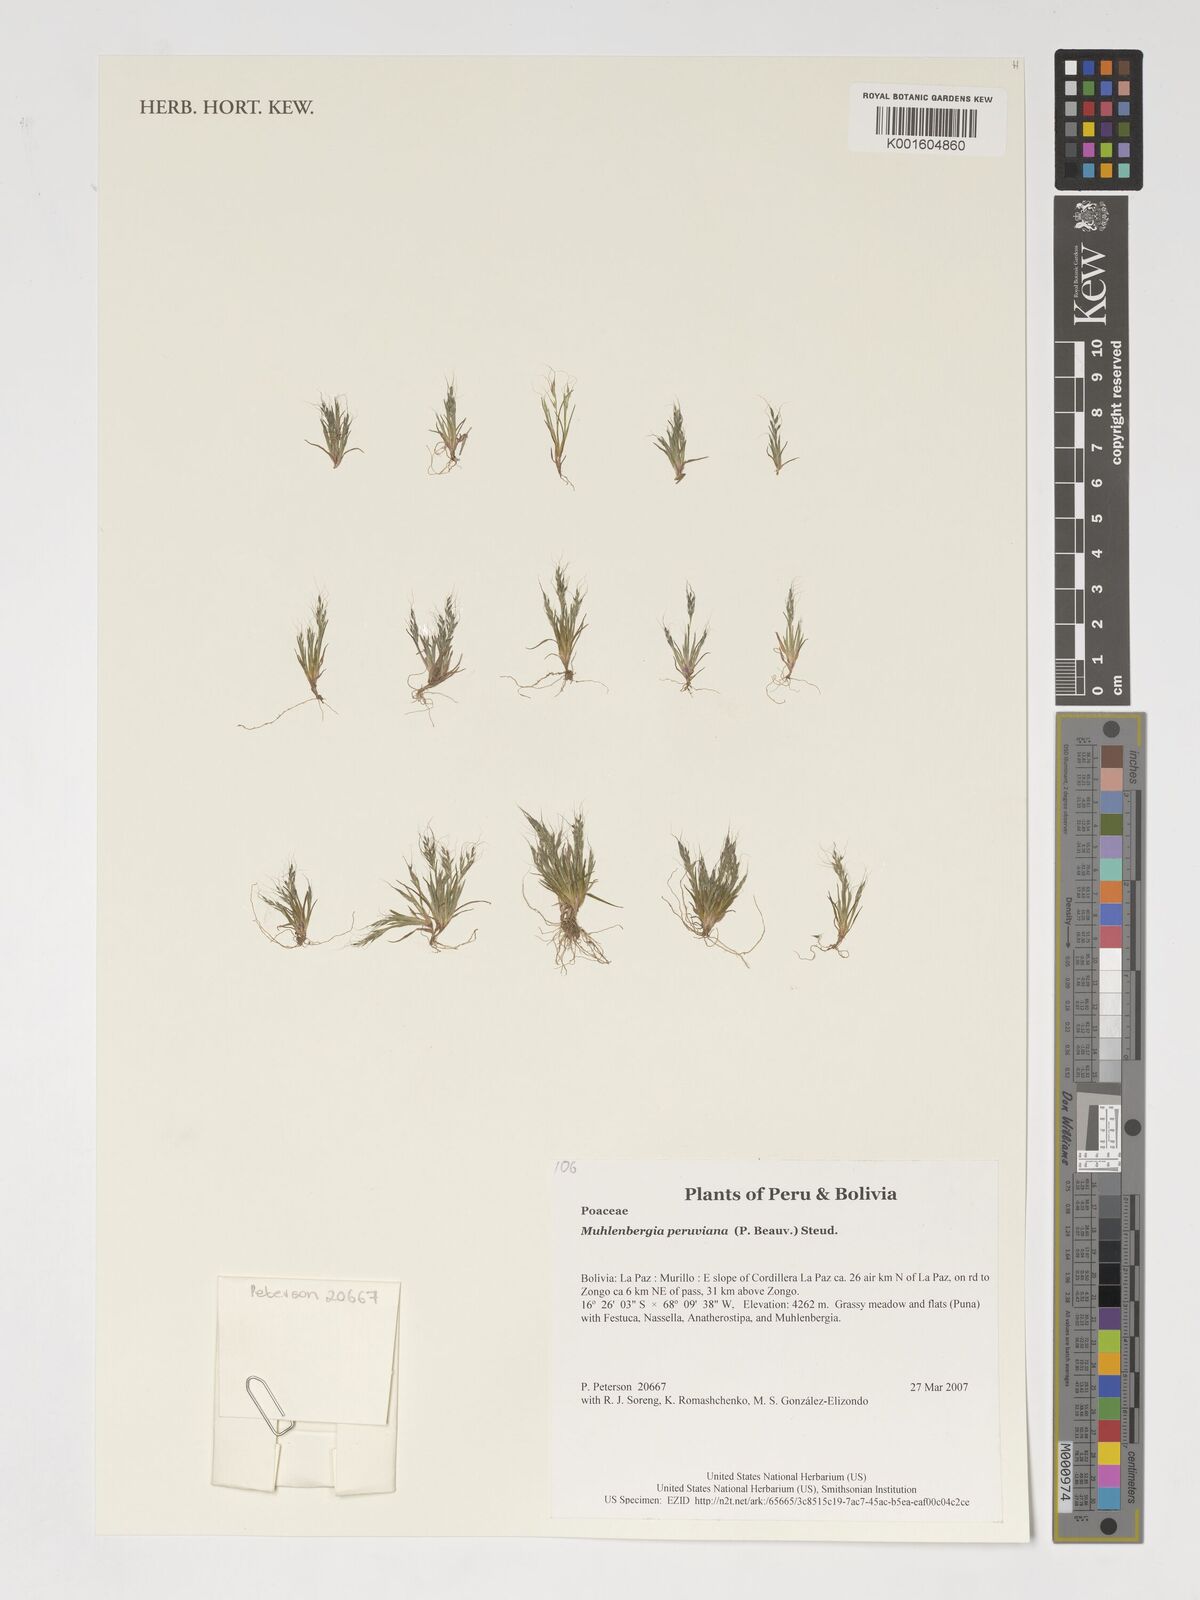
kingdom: Plantae
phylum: Tracheophyta
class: Liliopsida
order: Poales
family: Poaceae
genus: Muhlenbergia
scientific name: Muhlenbergia peruviana
